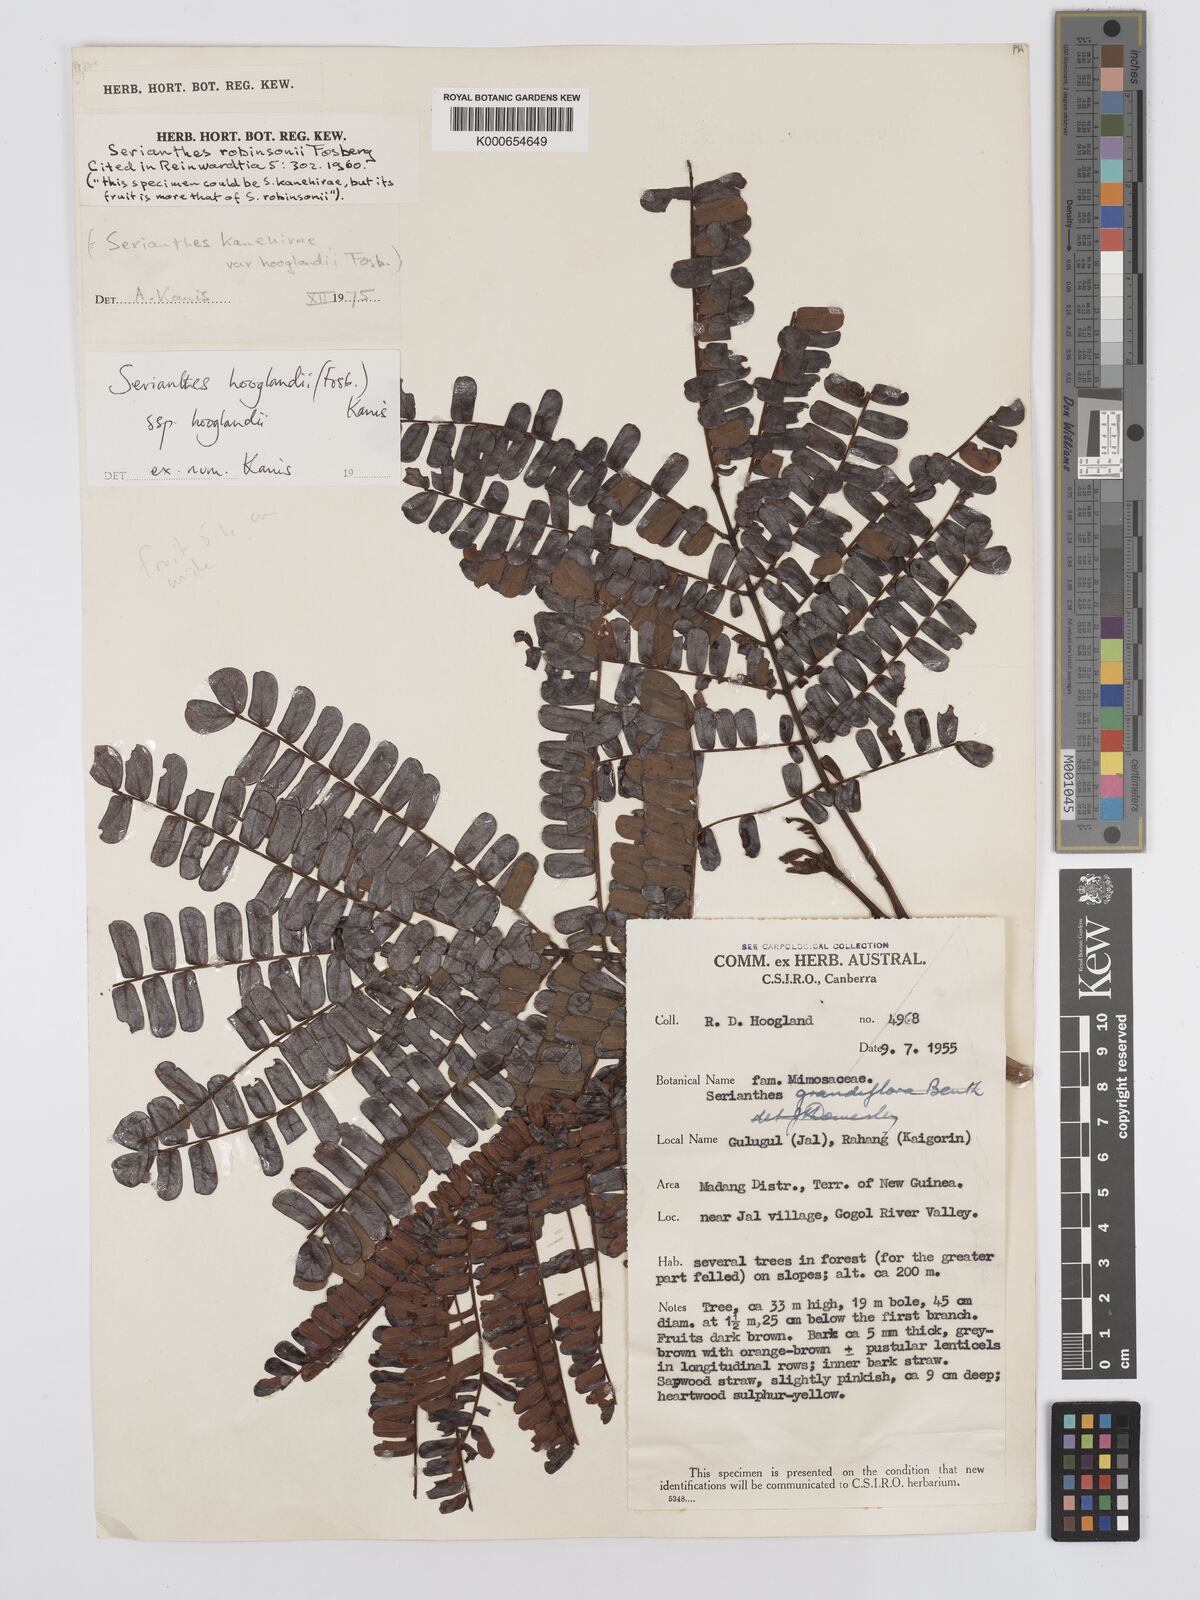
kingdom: Plantae
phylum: Tracheophyta
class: Magnoliopsida
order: Fabales
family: Fabaceae
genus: Serianthes
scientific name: Serianthes hooglandii
